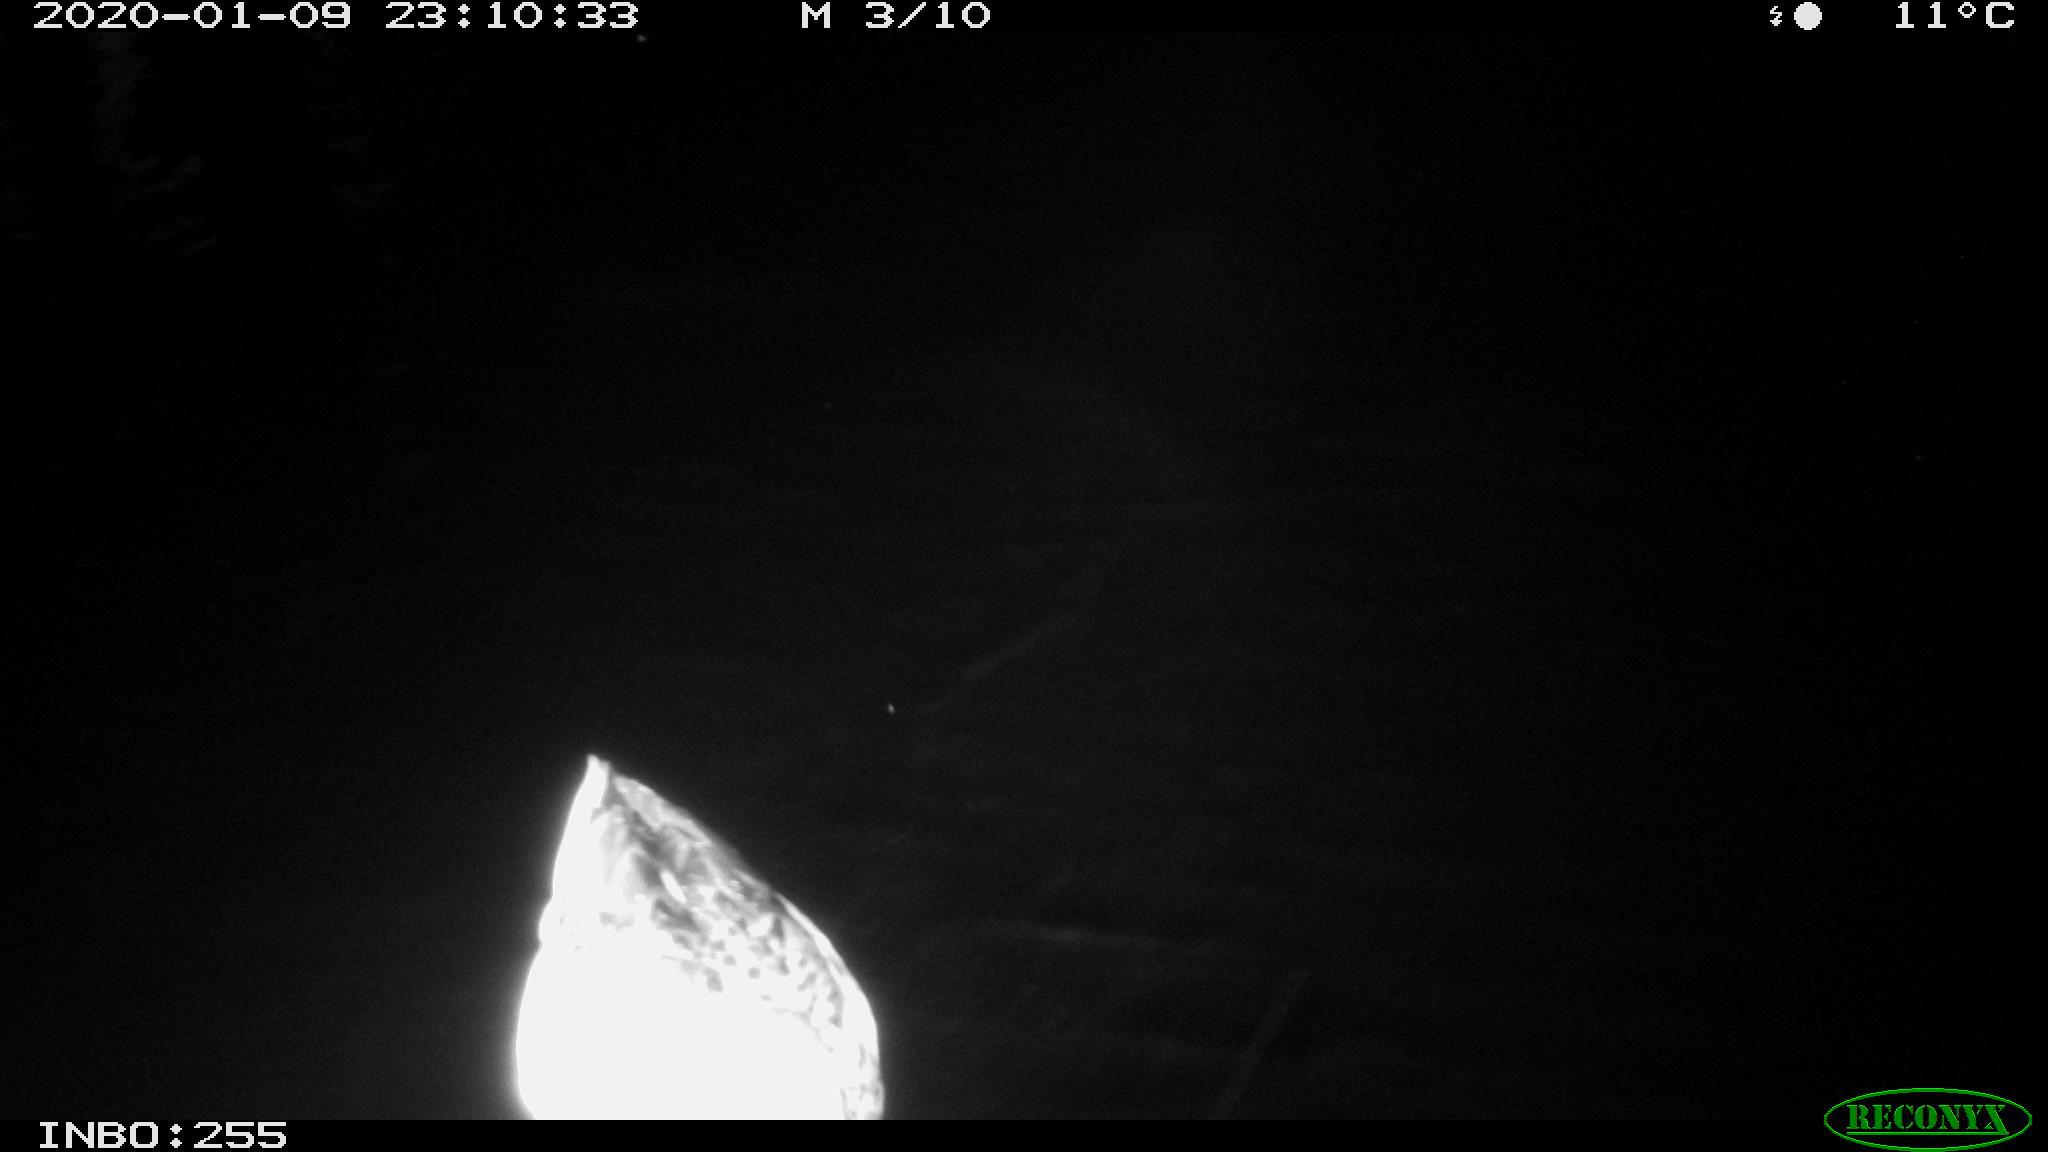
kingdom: Animalia
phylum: Chordata
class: Aves
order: Anseriformes
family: Anatidae
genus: Anas
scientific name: Anas platyrhynchos
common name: Mallard
